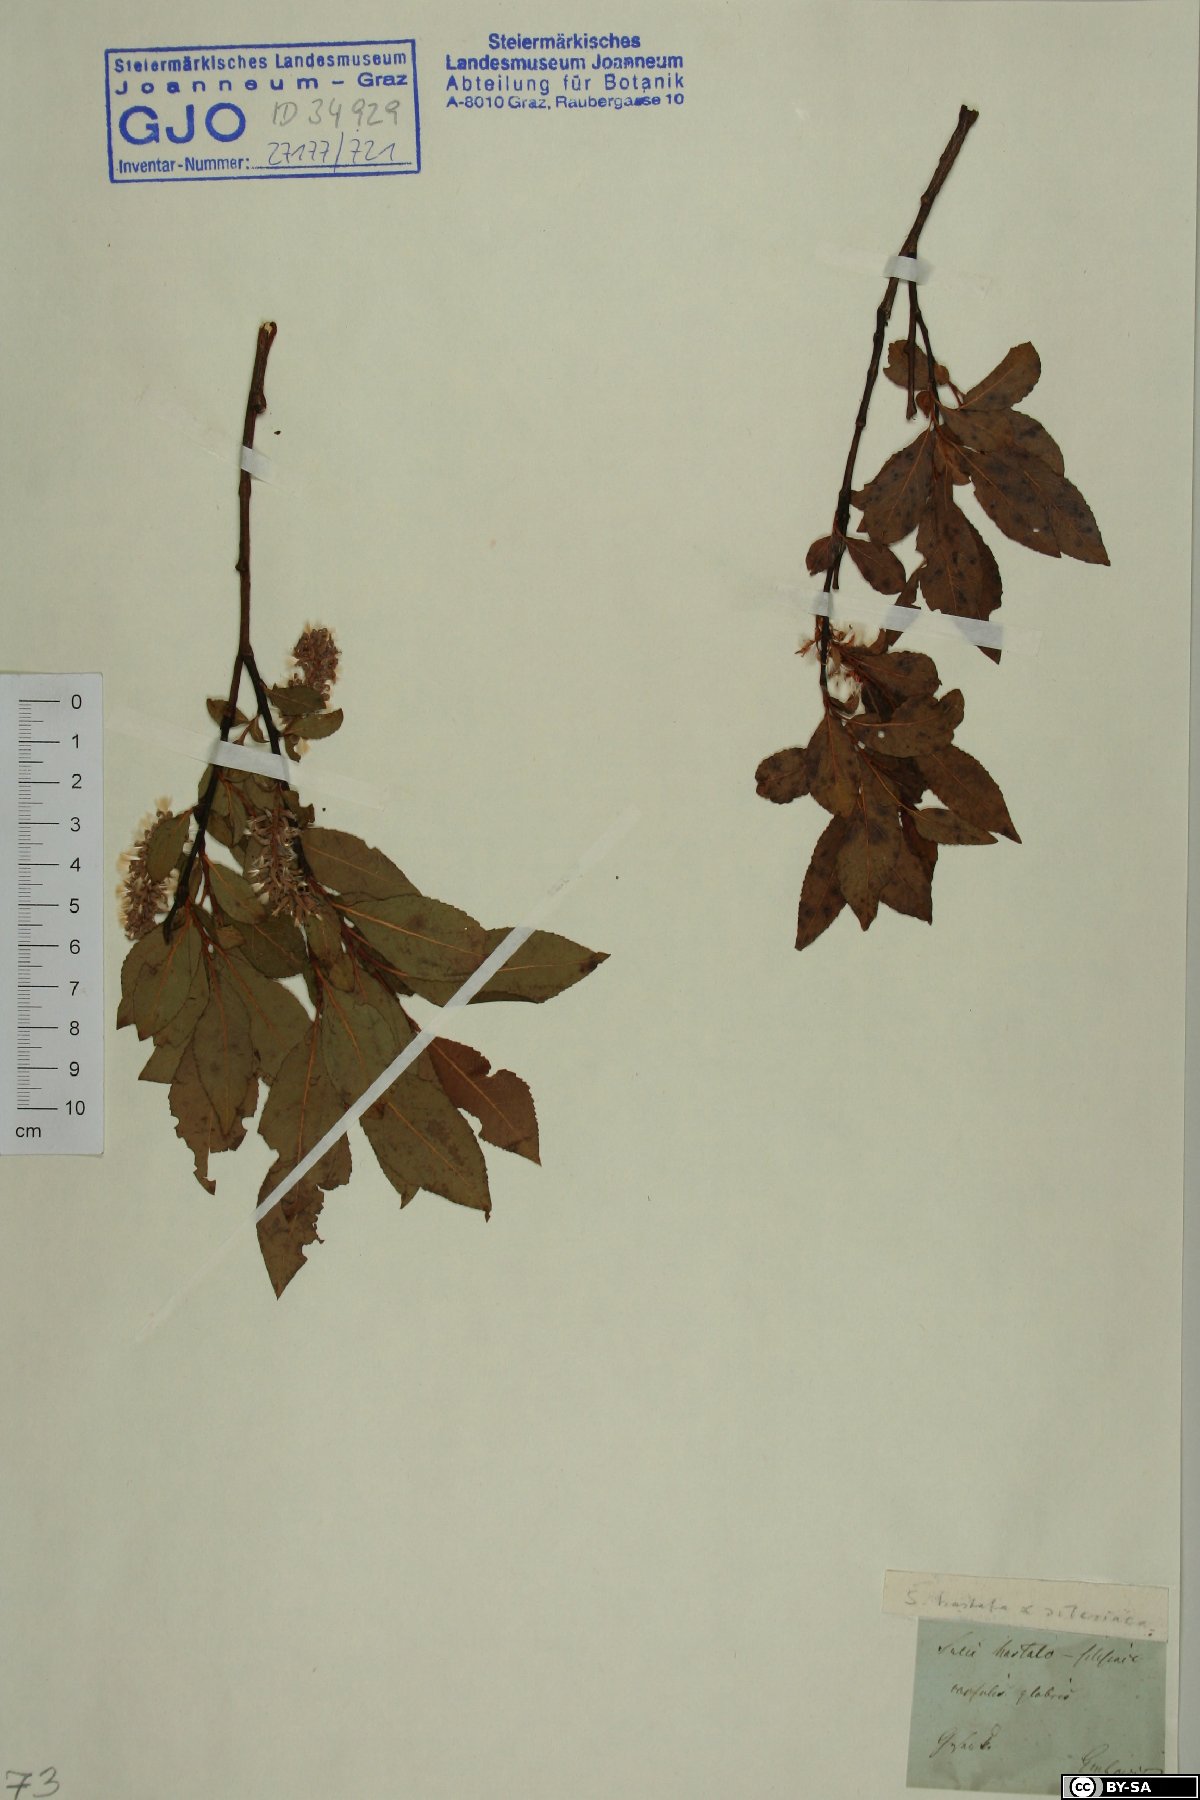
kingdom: Plantae
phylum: Tracheophyta
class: Magnoliopsida
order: Malpighiales
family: Salicaceae
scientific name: Salicaceae
